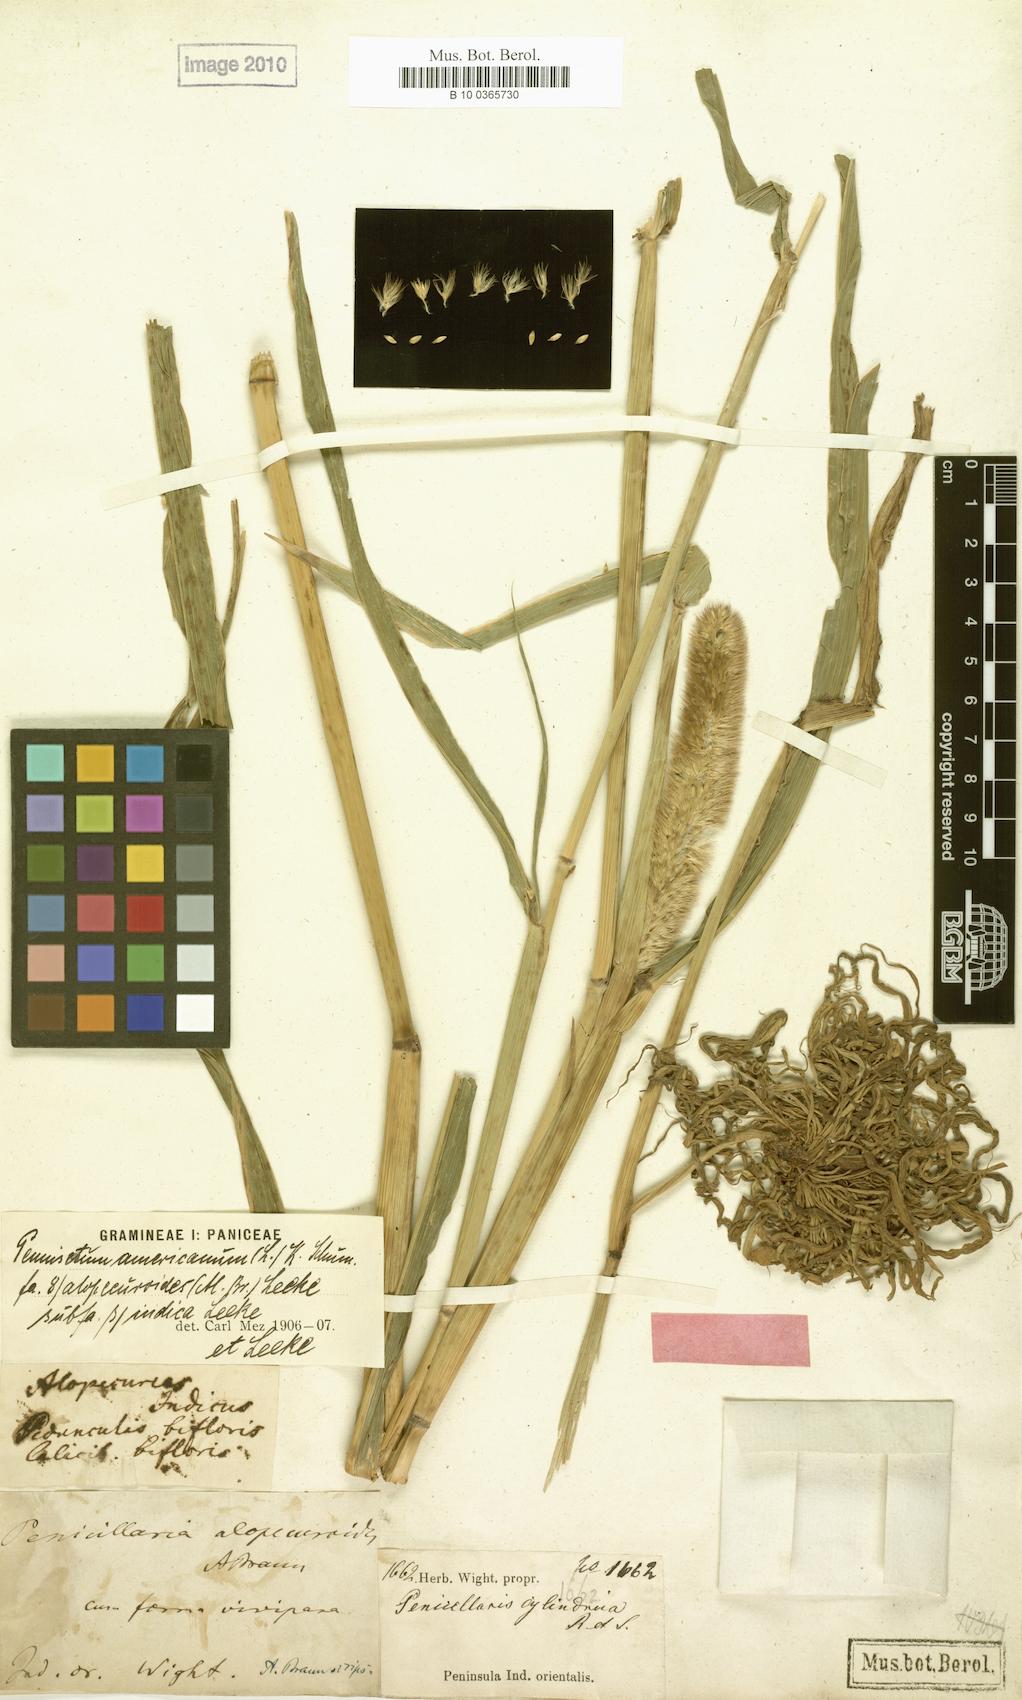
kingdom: Plantae
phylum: Tracheophyta
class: Liliopsida
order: Poales
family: Poaceae
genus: Cenchrus
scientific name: Cenchrus alopecuroides
